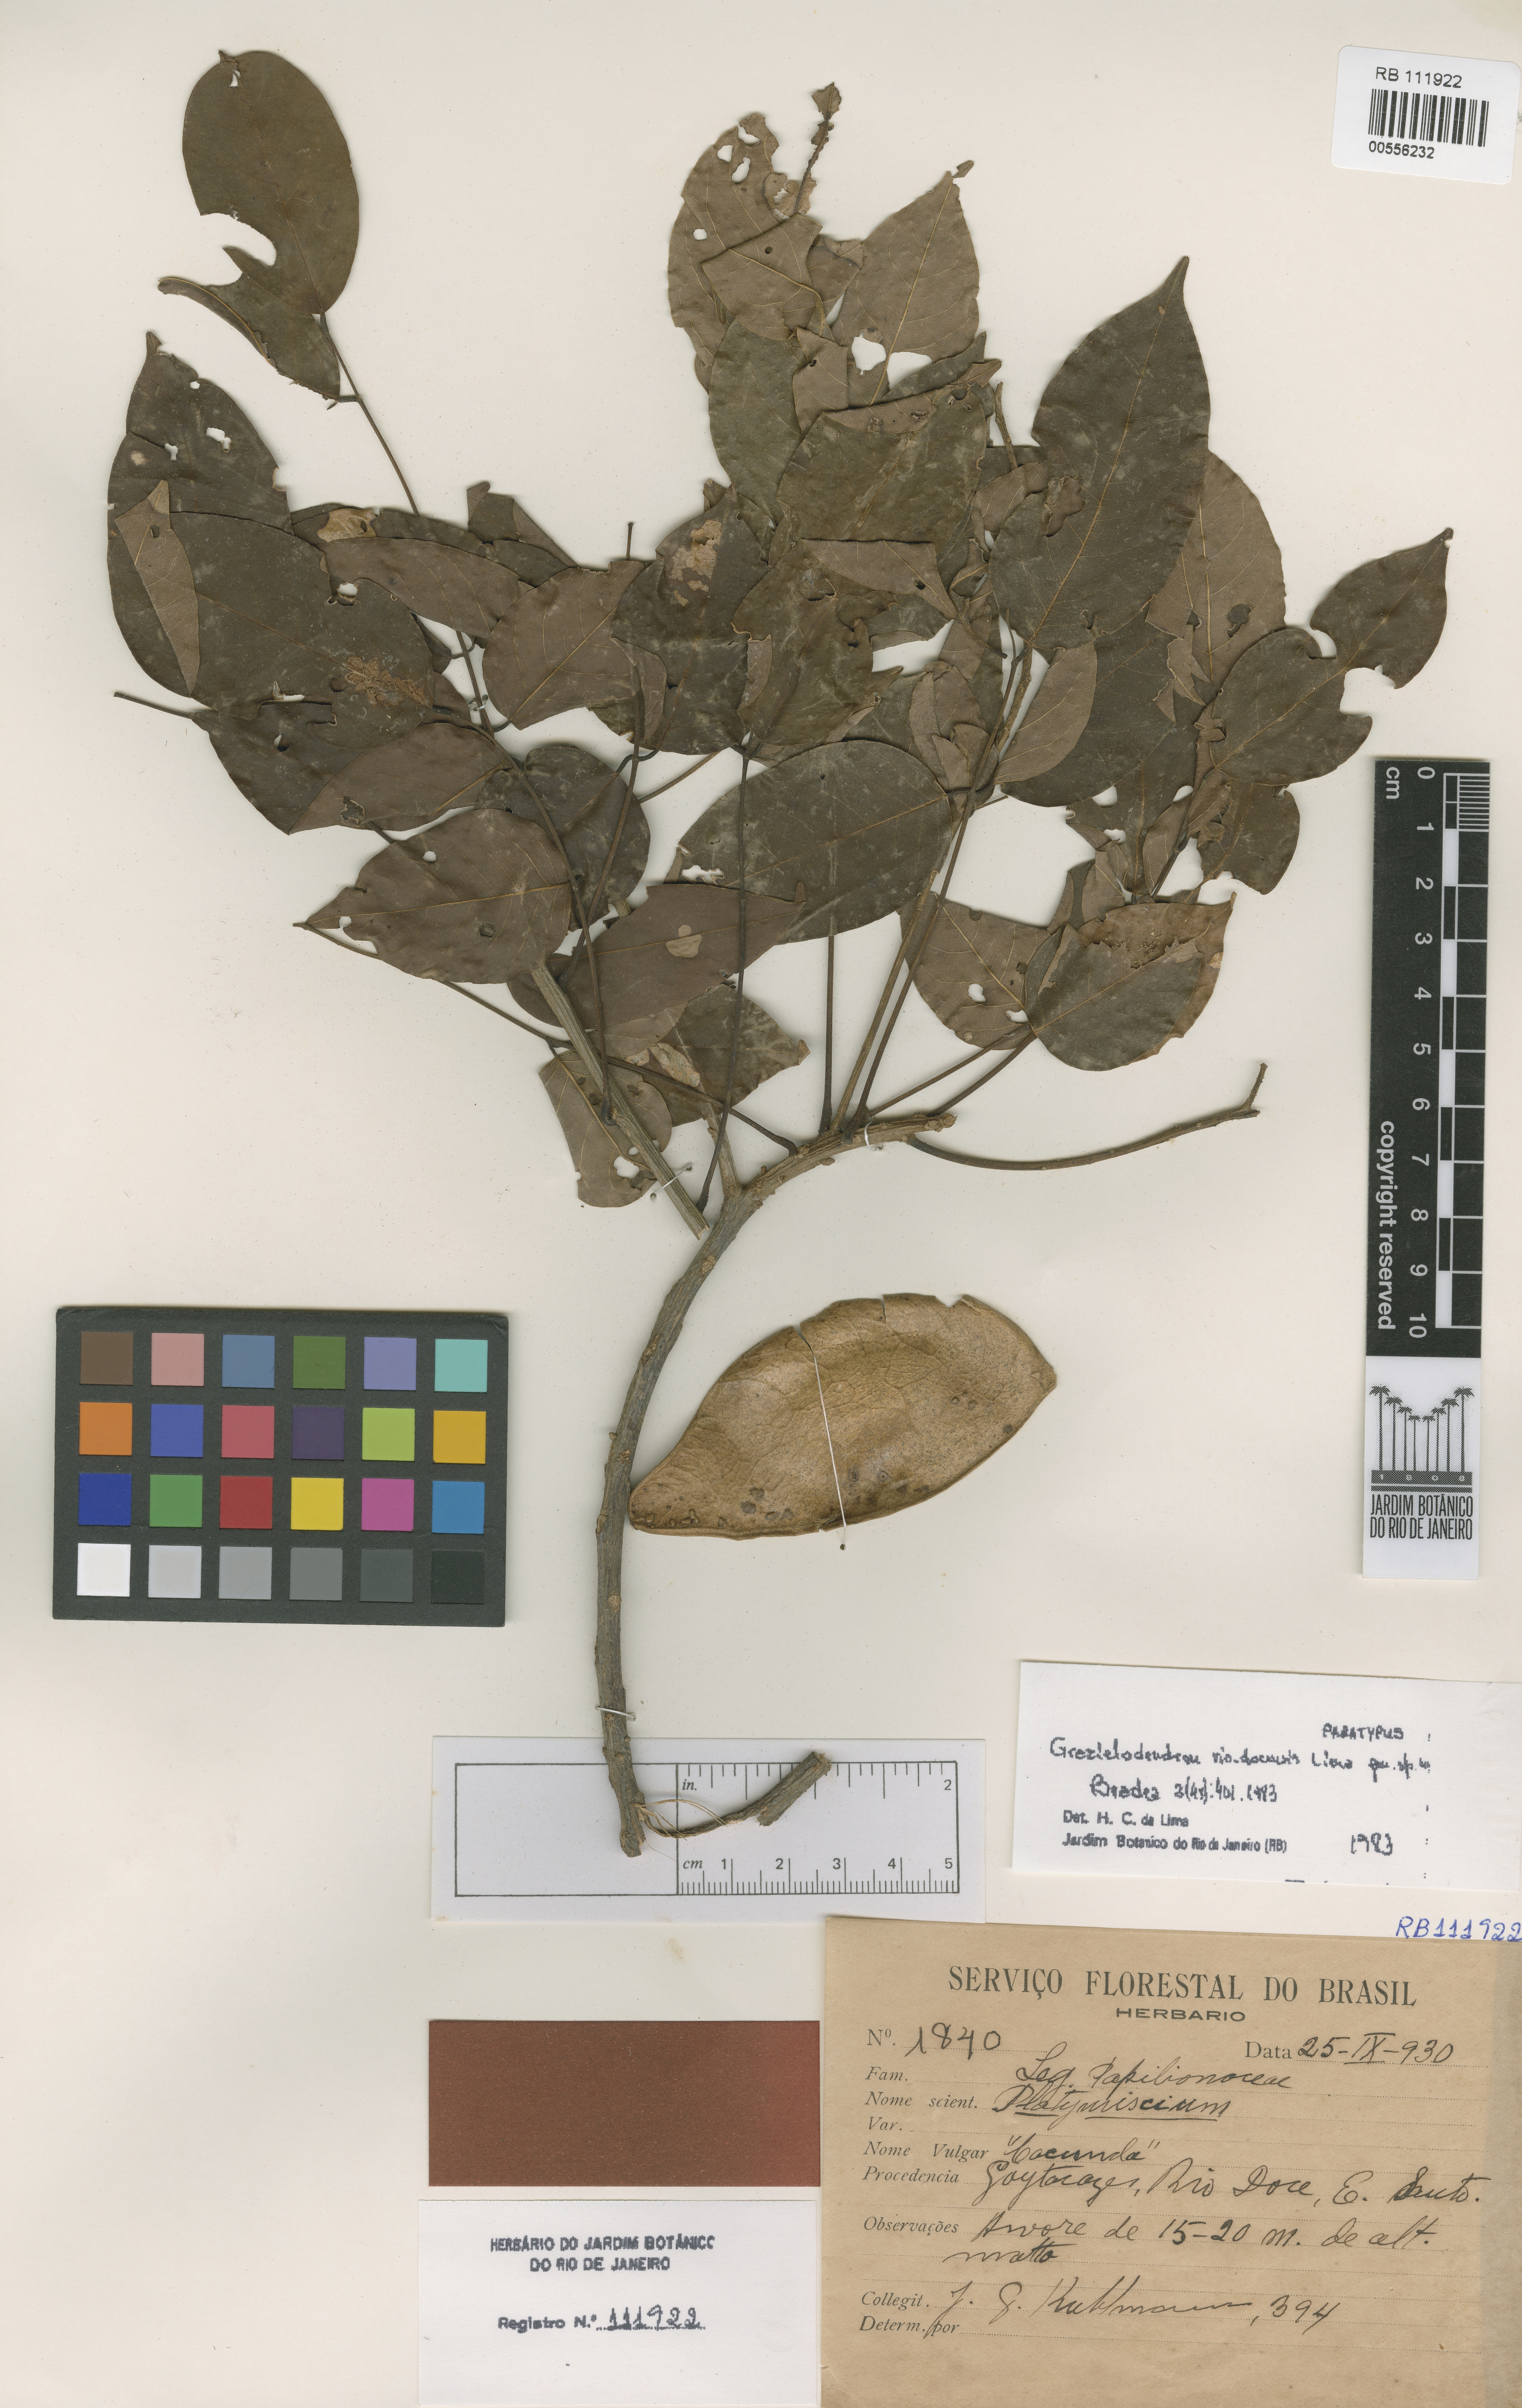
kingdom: Plantae
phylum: Tracheophyta
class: Magnoliopsida
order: Fabales
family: Fabaceae
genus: Grazielodendron
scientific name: Grazielodendron riodocensis
